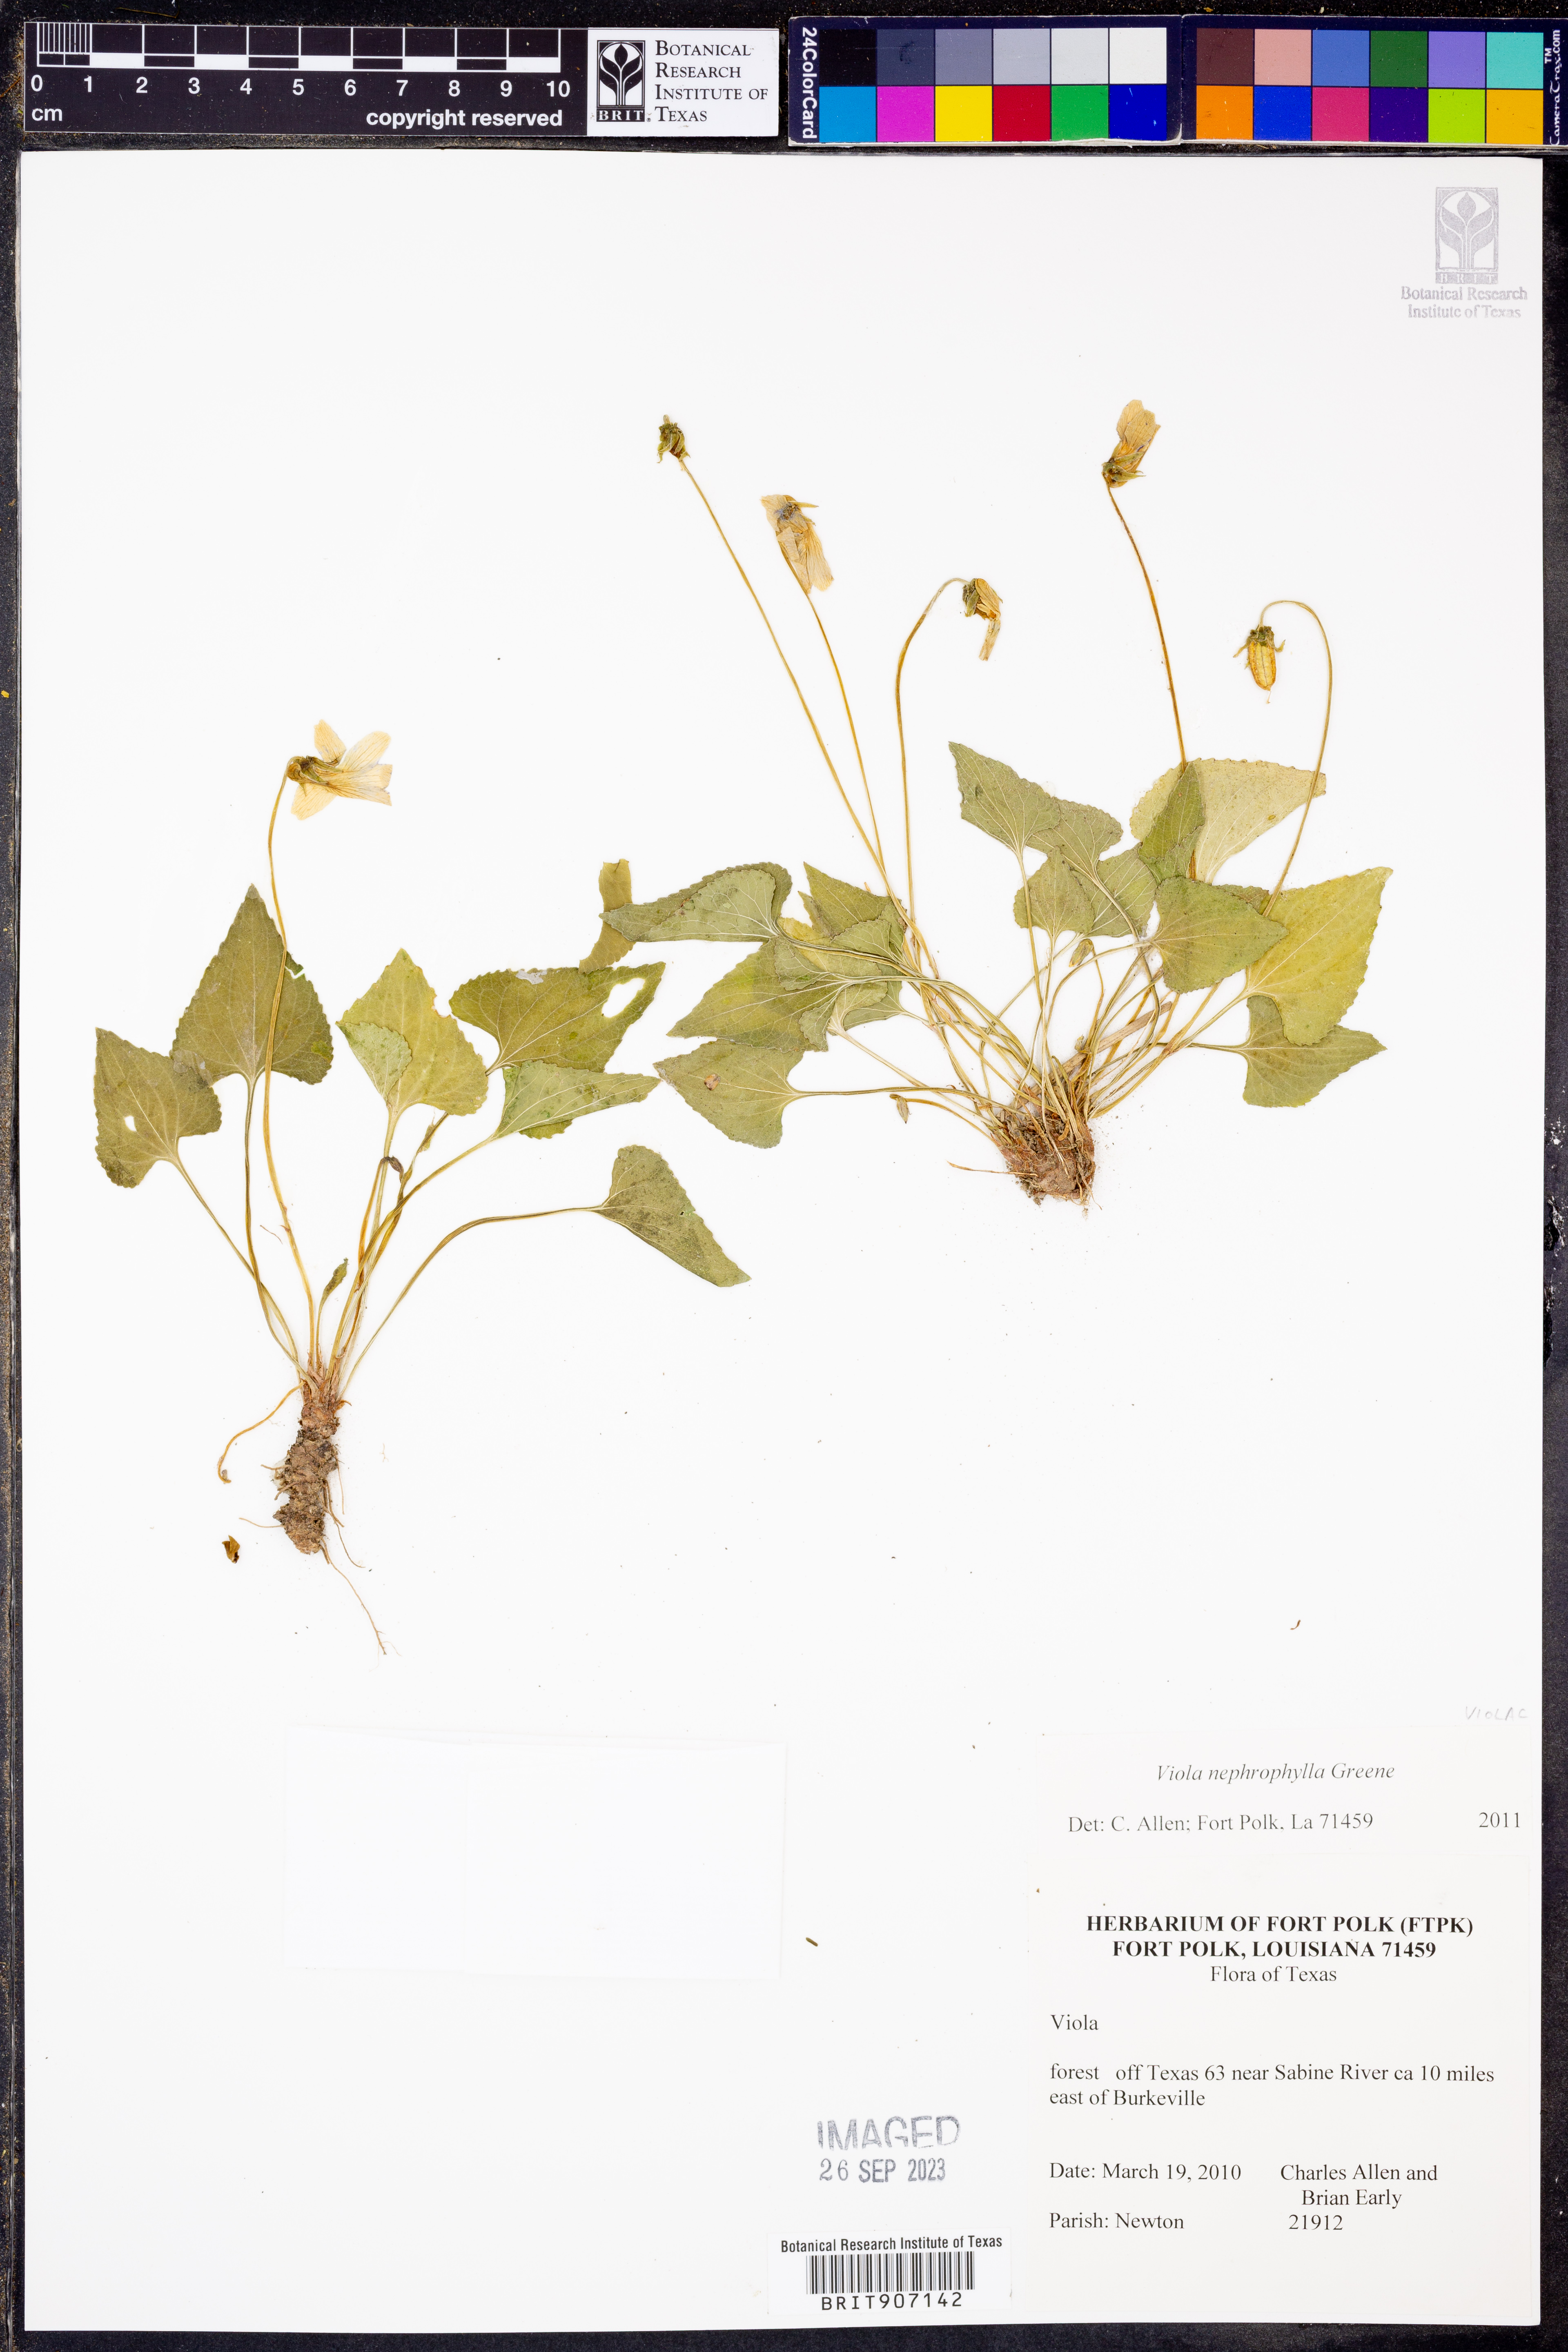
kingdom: Plantae
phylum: Tracheophyta
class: Magnoliopsida
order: Malpighiales
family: Violaceae
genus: Viola
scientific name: Viola nephrophylla
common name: Blue meadow violet
